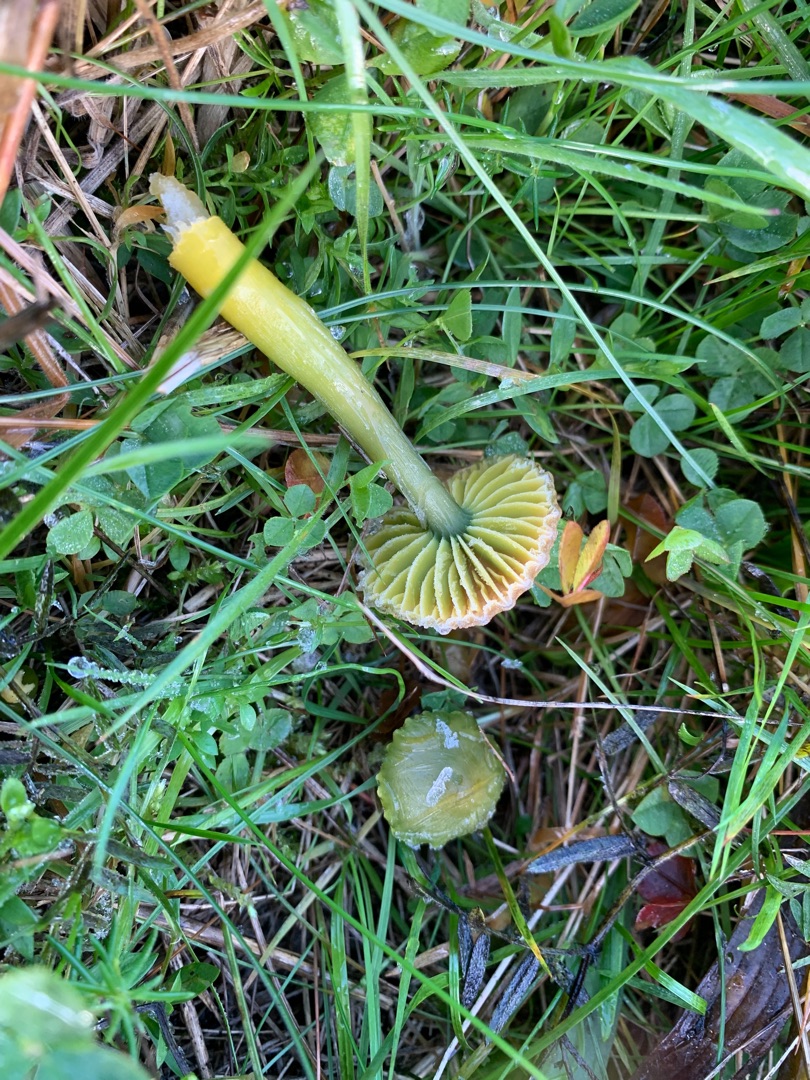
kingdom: Fungi
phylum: Basidiomycota
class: Agaricomycetes
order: Agaricales
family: Hygrophoraceae
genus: Gliophorus
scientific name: Gliophorus psittacinus
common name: Papegøje-vokshat
